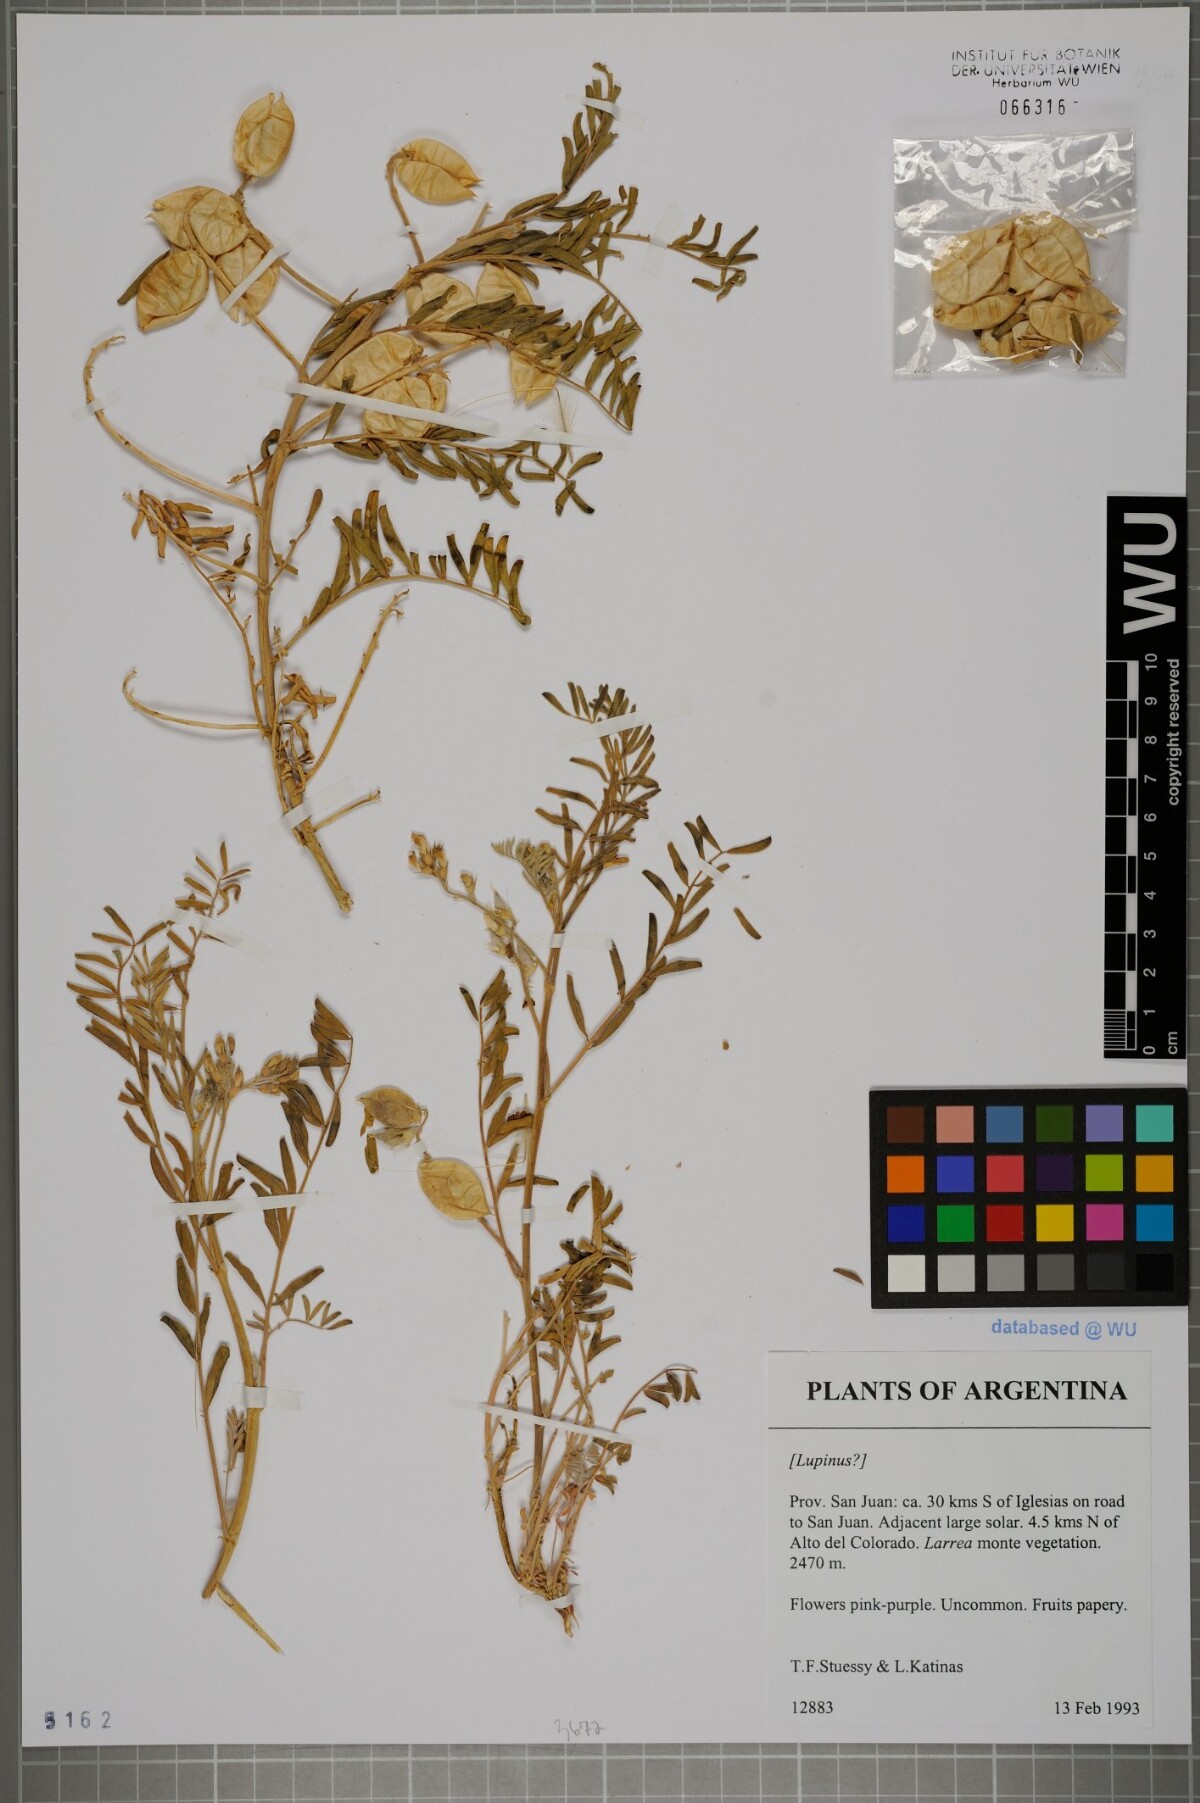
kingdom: Plantae
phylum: Tracheophyta
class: Magnoliopsida
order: Fabales
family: Fabaceae
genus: Lupinus
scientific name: Lupinus
